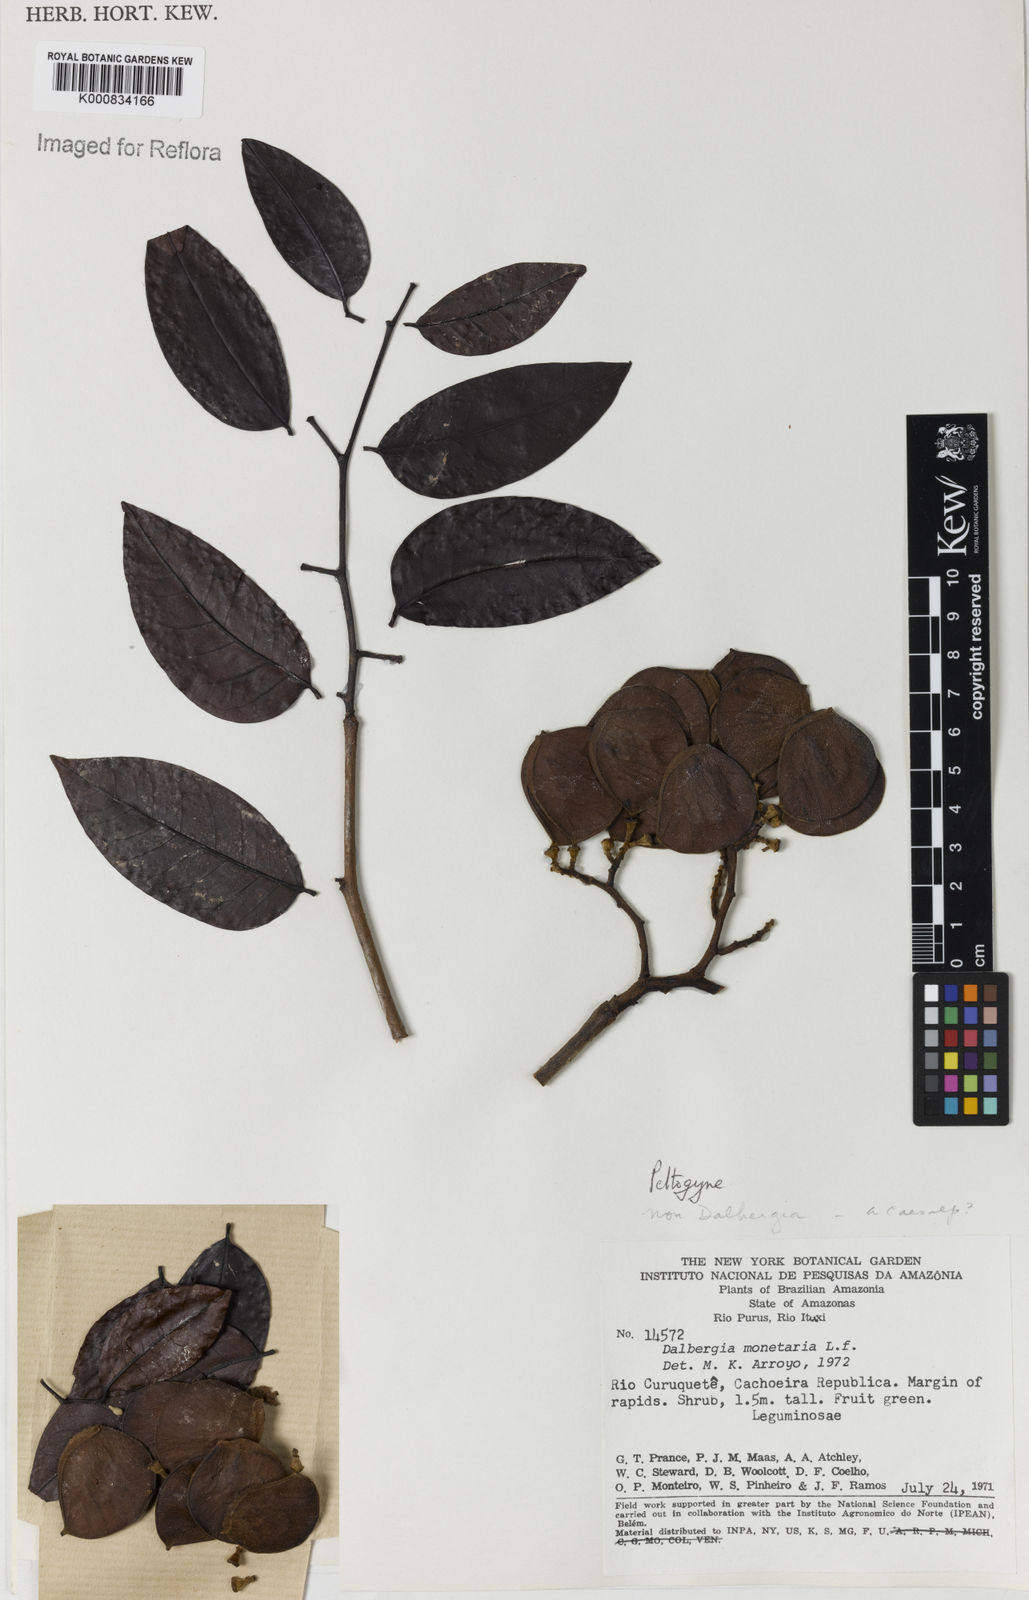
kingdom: Plantae
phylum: Tracheophyta
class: Magnoliopsida
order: Fabales
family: Fabaceae
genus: Peltogyne
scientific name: Peltogyne
